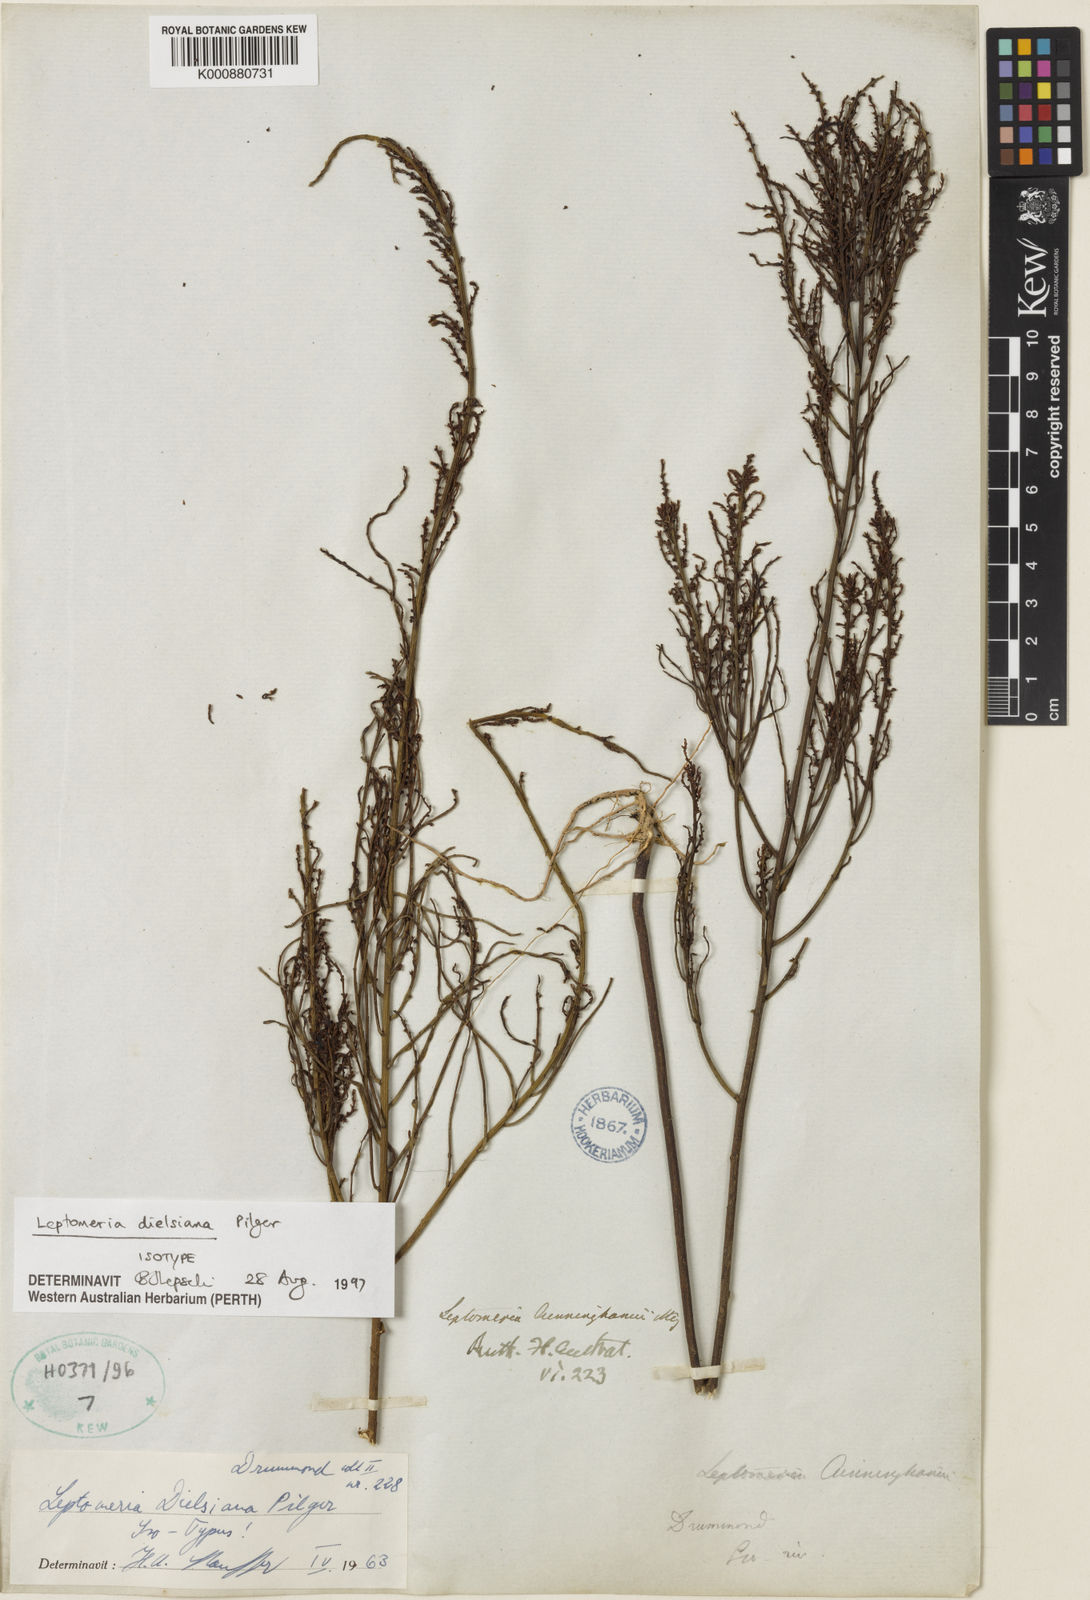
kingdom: Plantae
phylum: Tracheophyta
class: Magnoliopsida
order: Santalales
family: Amphorogynaceae
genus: Leptomeria
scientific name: Leptomeria dielsiana
